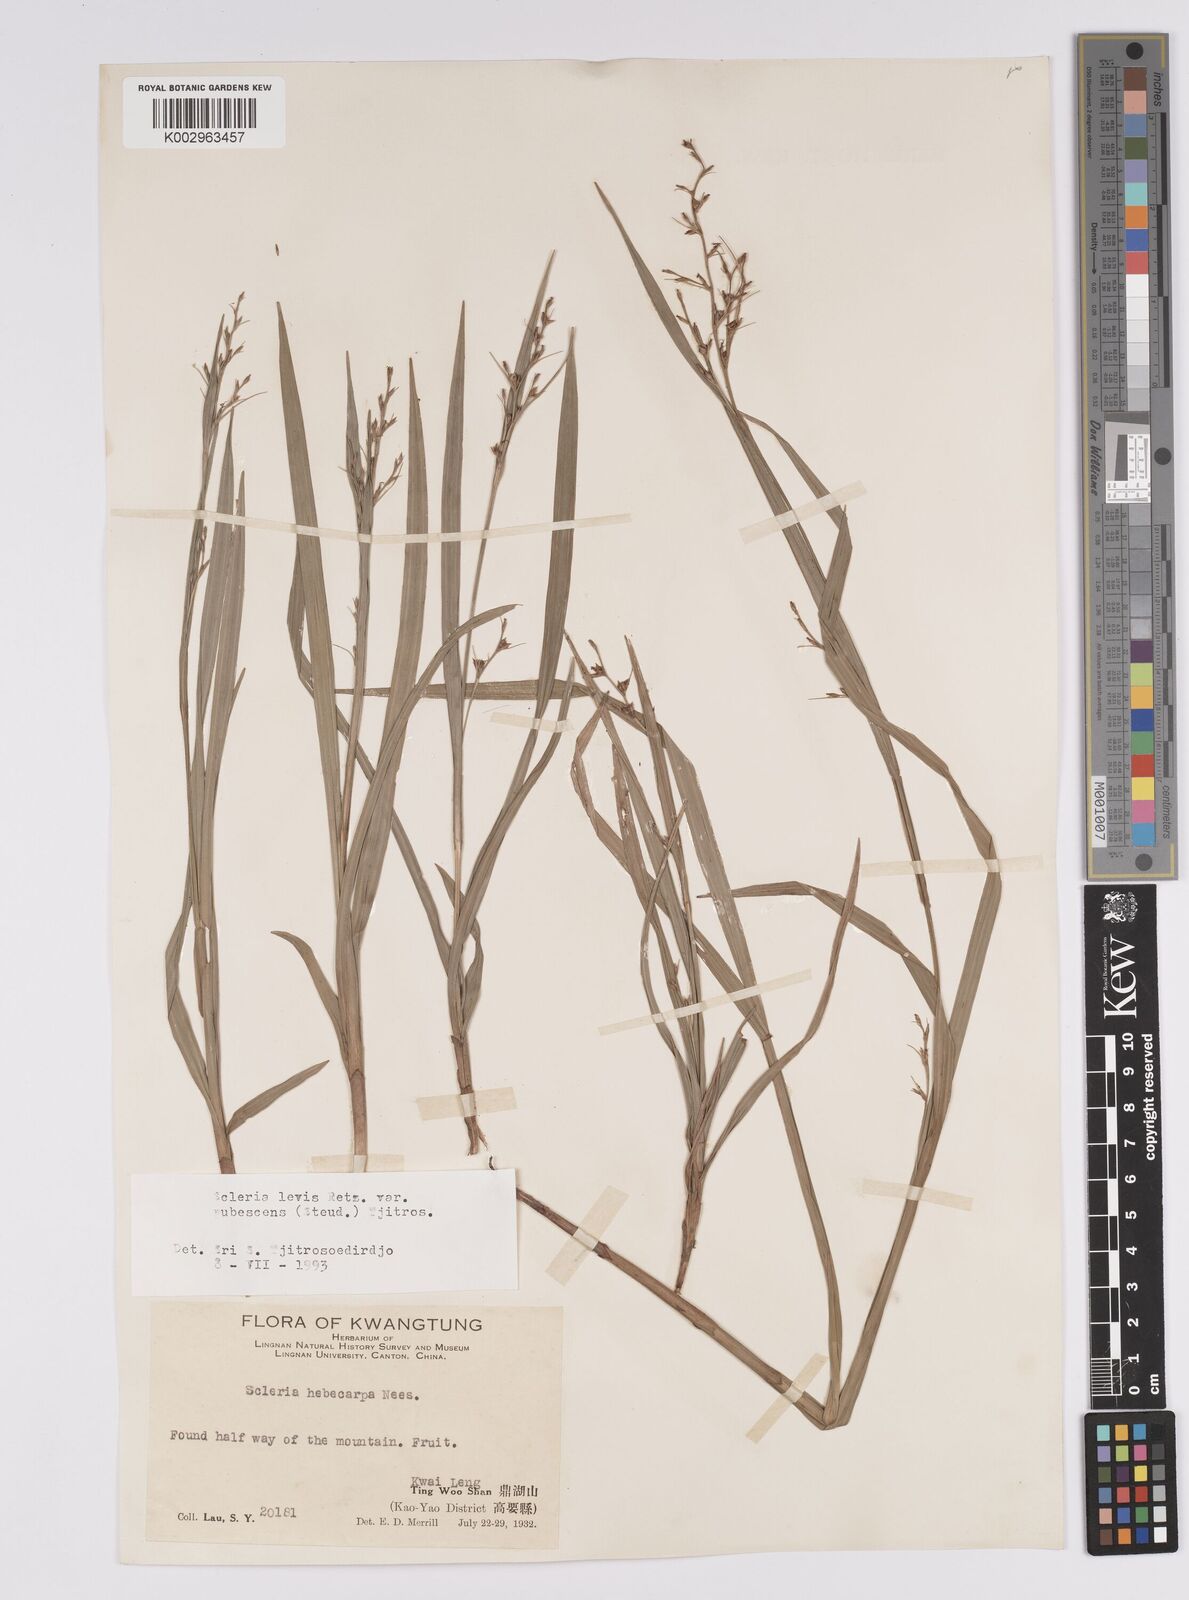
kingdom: Plantae
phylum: Tracheophyta
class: Liliopsida
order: Poales
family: Cyperaceae
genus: Scleria
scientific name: Scleria levis
